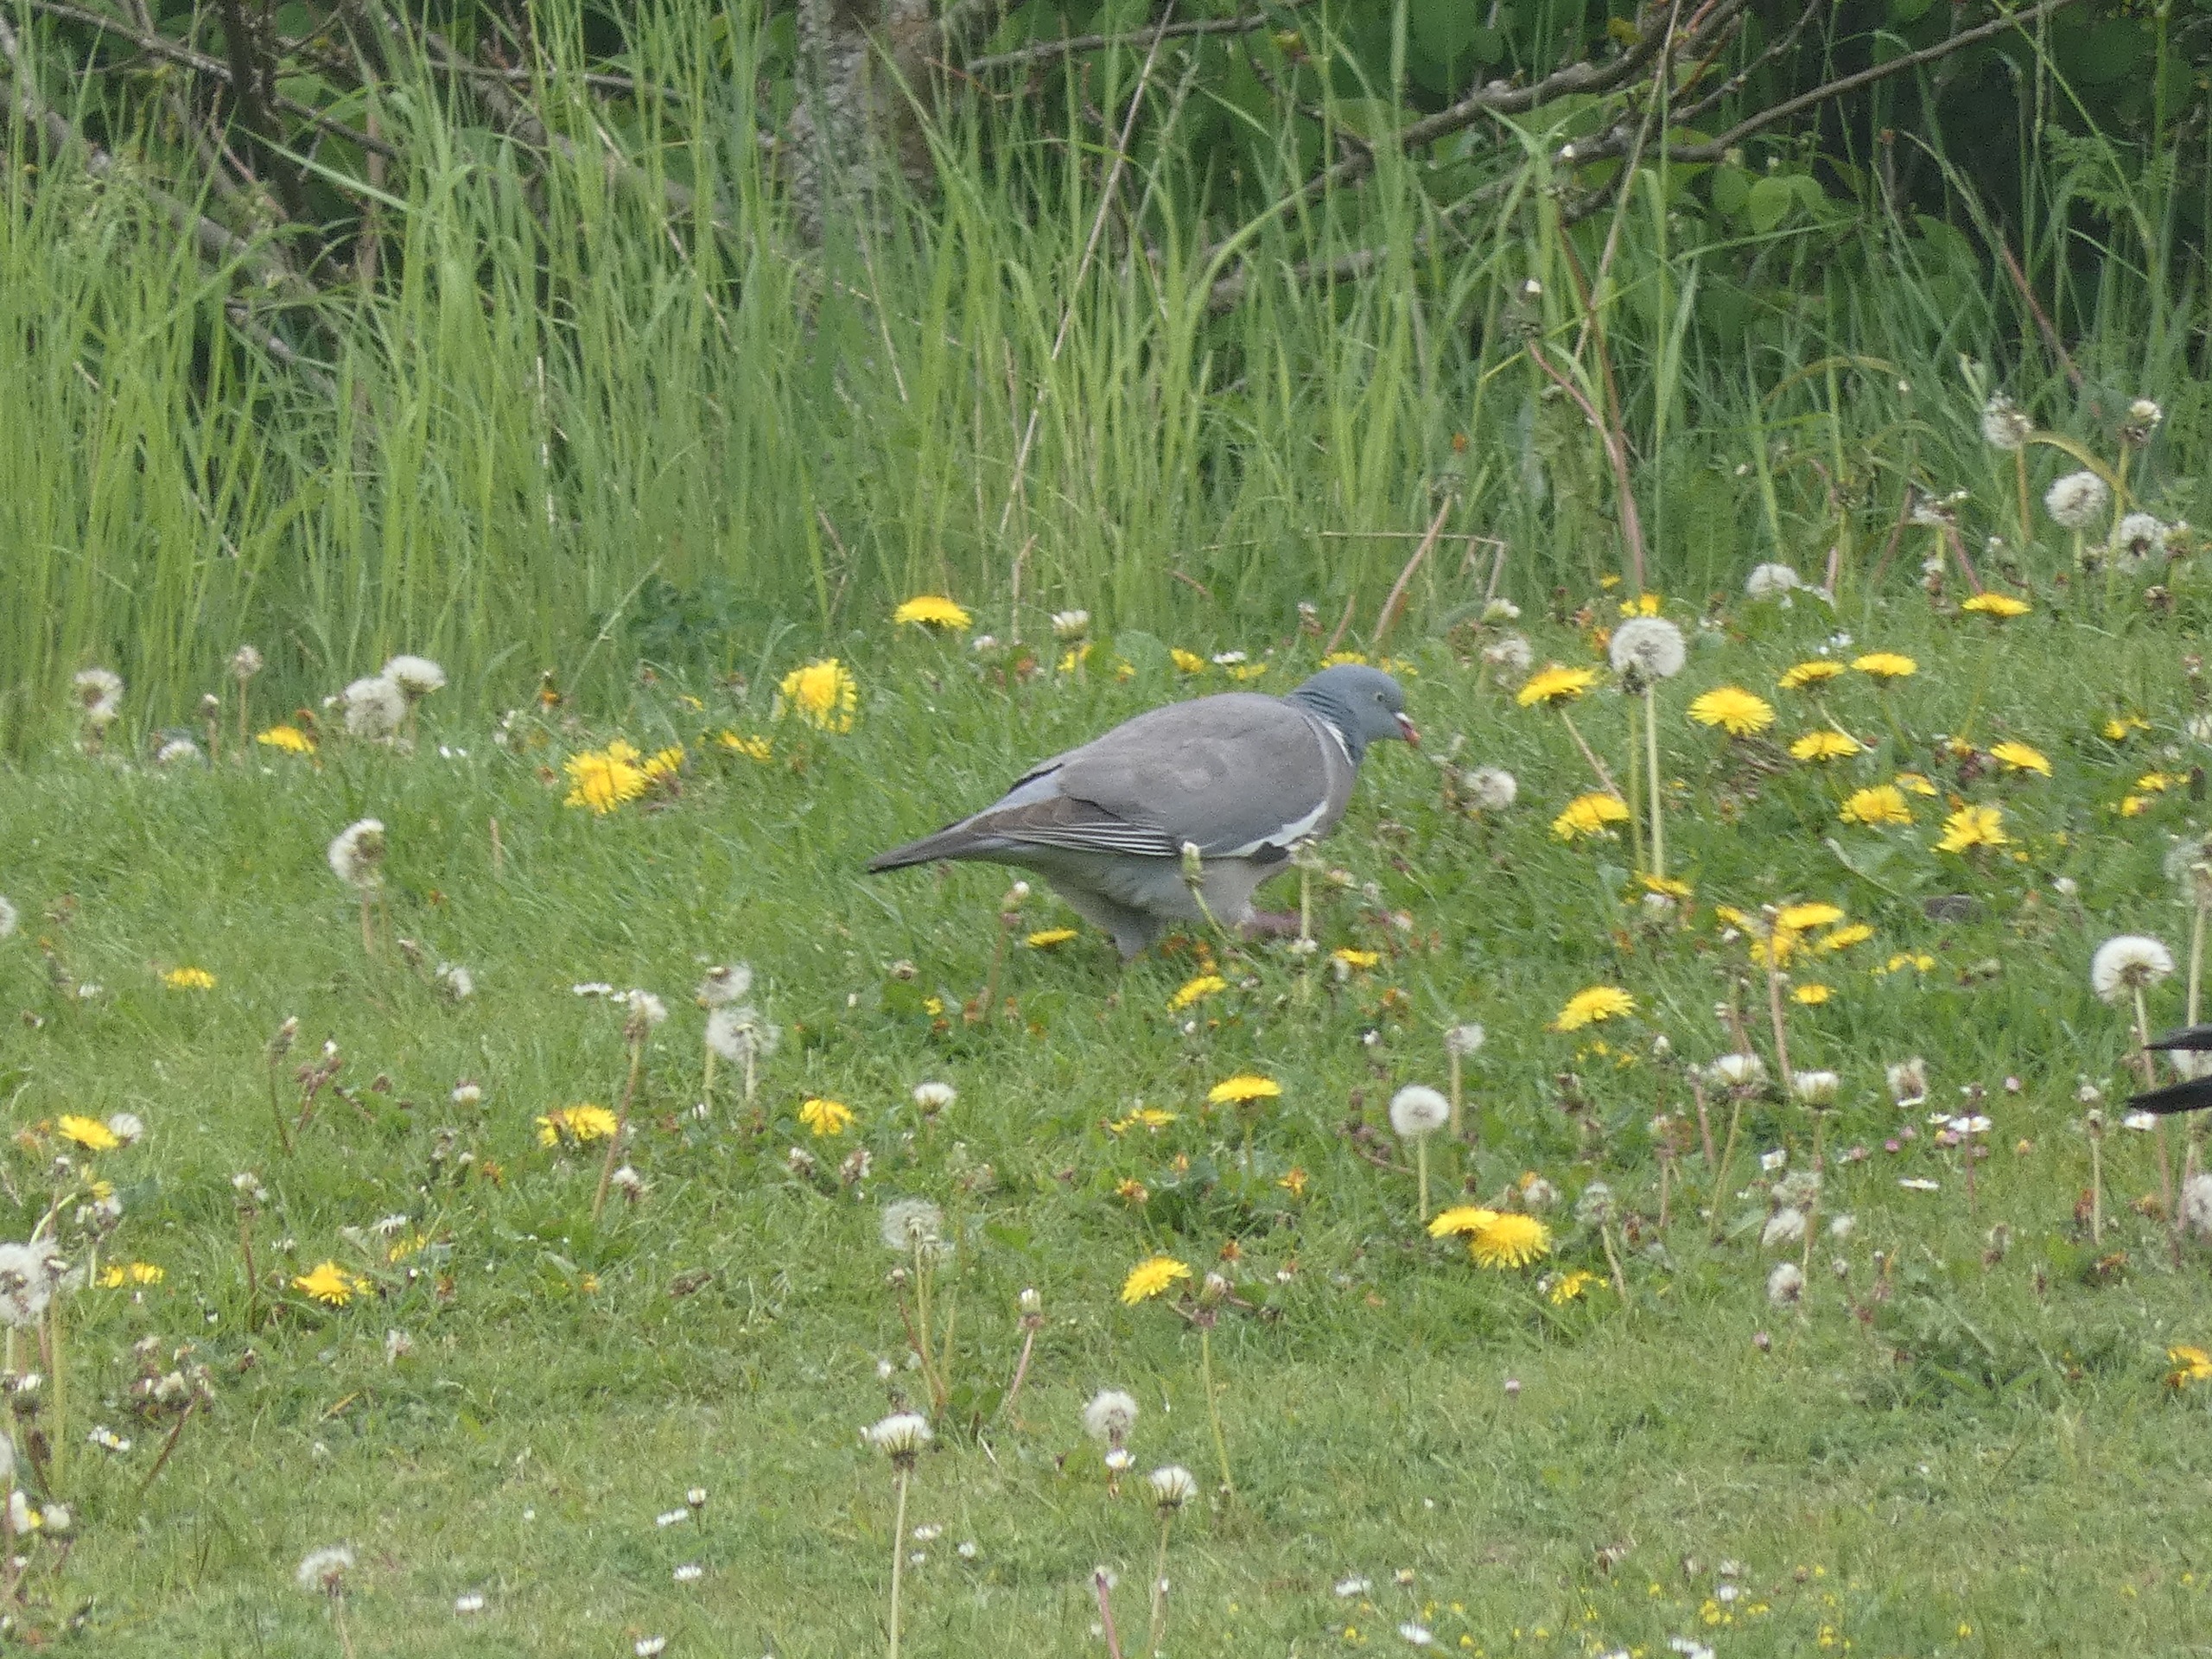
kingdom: Animalia
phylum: Chordata
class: Aves
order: Columbiformes
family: Columbidae
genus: Columba
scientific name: Columba palumbus
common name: Ringdue
